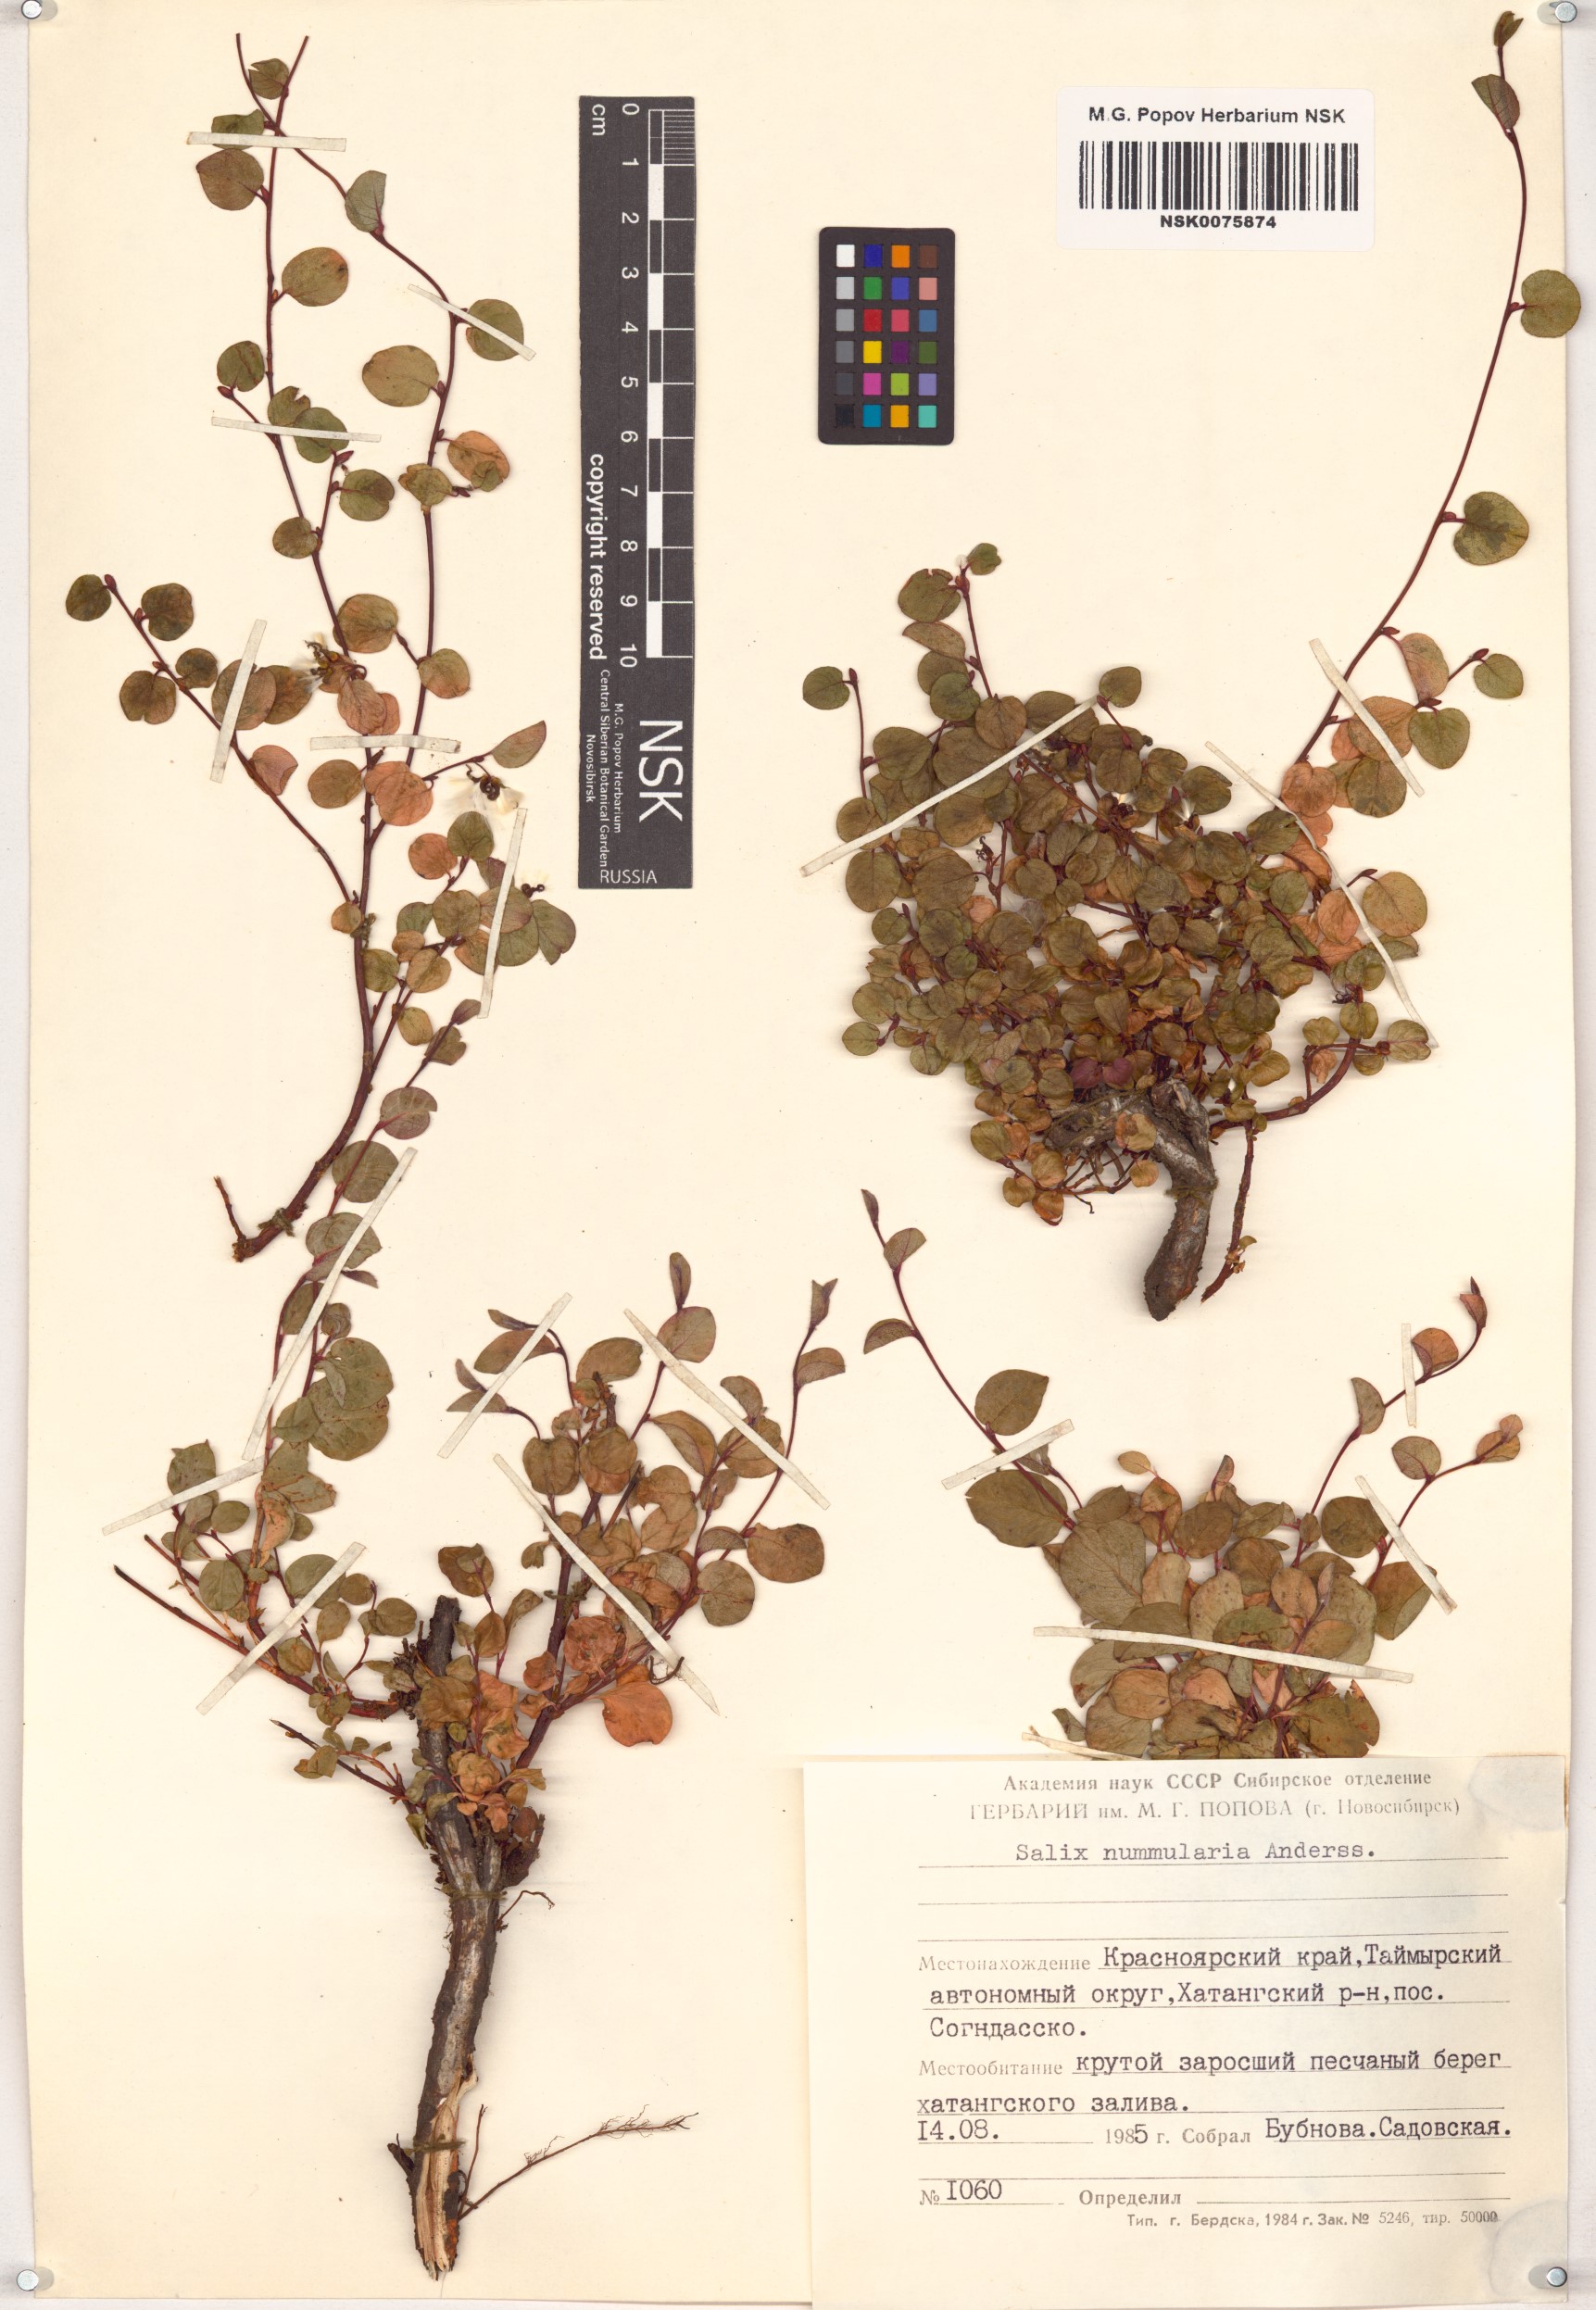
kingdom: Plantae
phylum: Tracheophyta
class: Magnoliopsida
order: Malpighiales
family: Salicaceae
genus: Salix
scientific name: Salix nummularia
